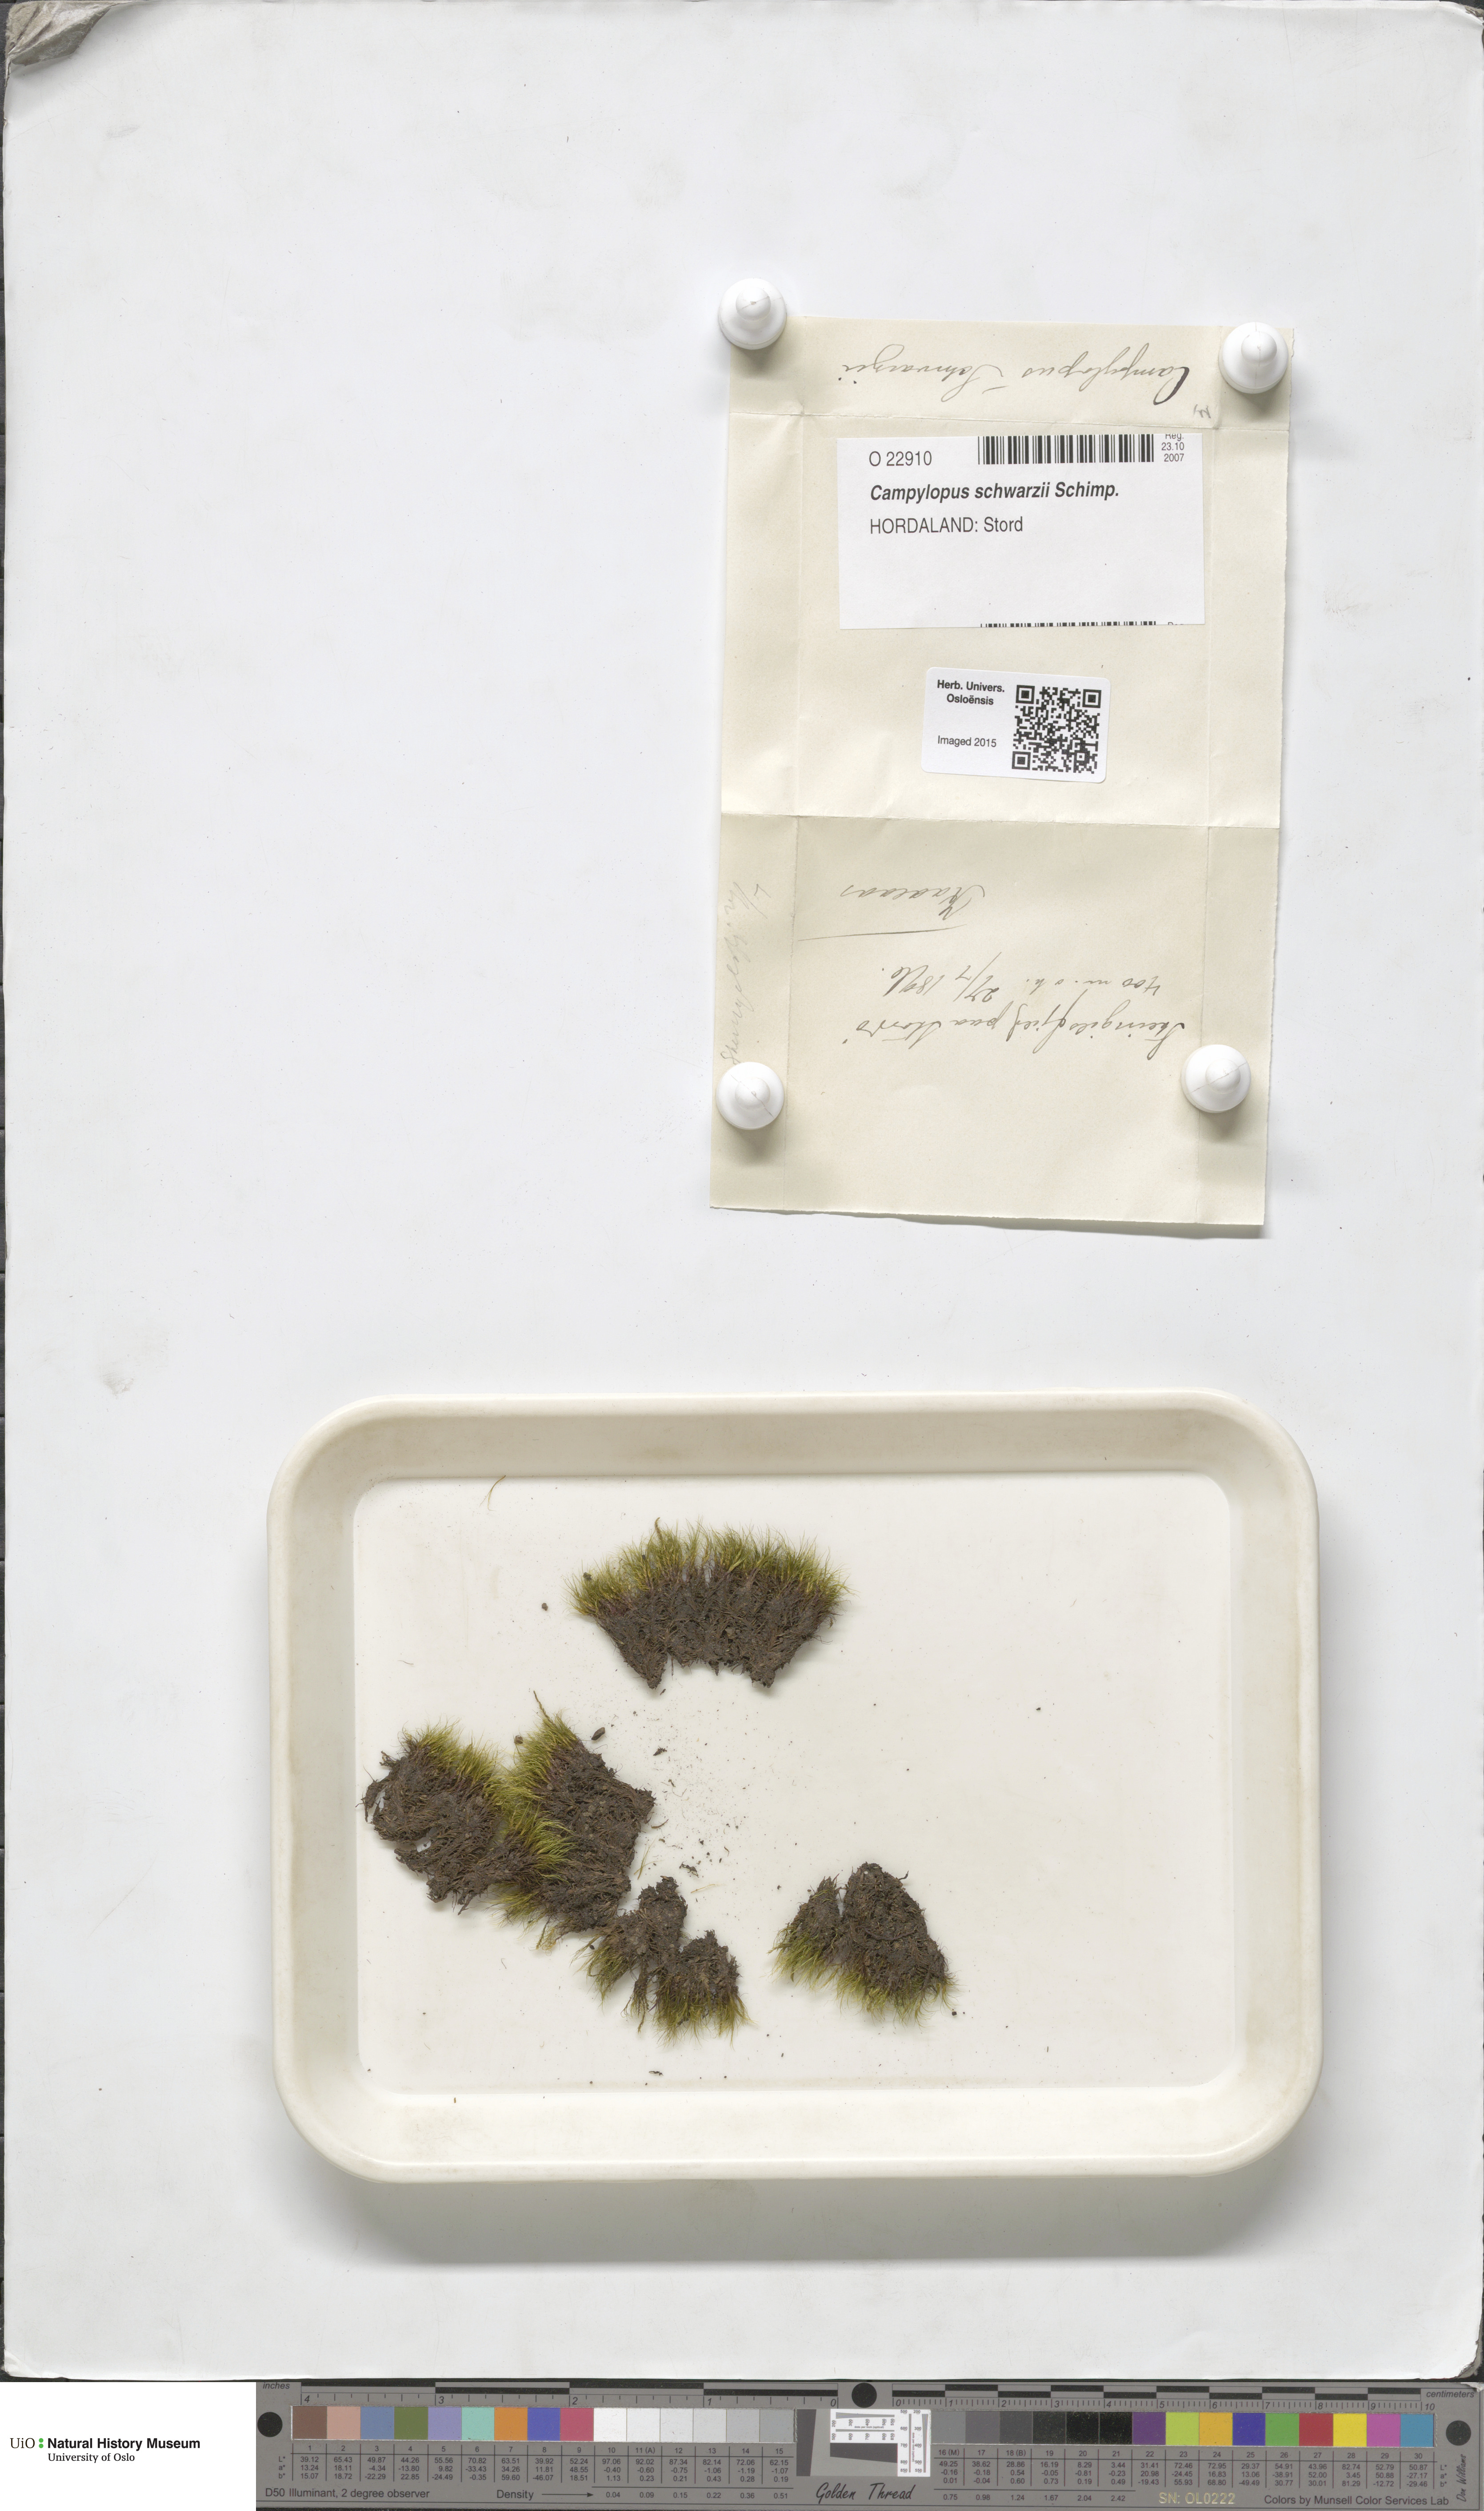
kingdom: Plantae
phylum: Bryophyta
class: Bryopsida
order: Dicranales
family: Leucobryaceae
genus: Campylopus
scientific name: Campylopus gracilis
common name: Schwarz's swan-neck moss
